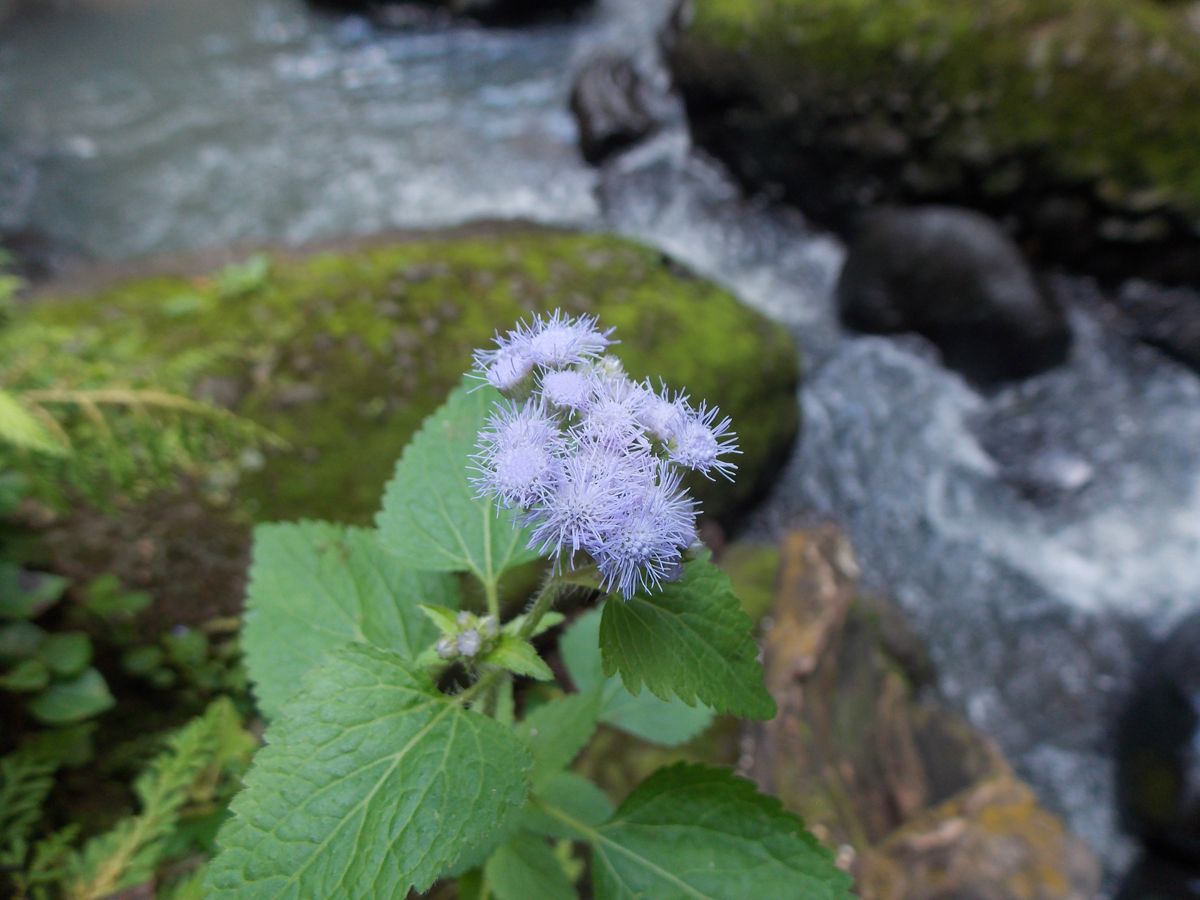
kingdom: Plantae
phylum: Tracheophyta
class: Magnoliopsida
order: Asterales
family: Asteraceae
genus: Ageratum
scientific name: Ageratum conyzoides
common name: Tropical whiteweed
